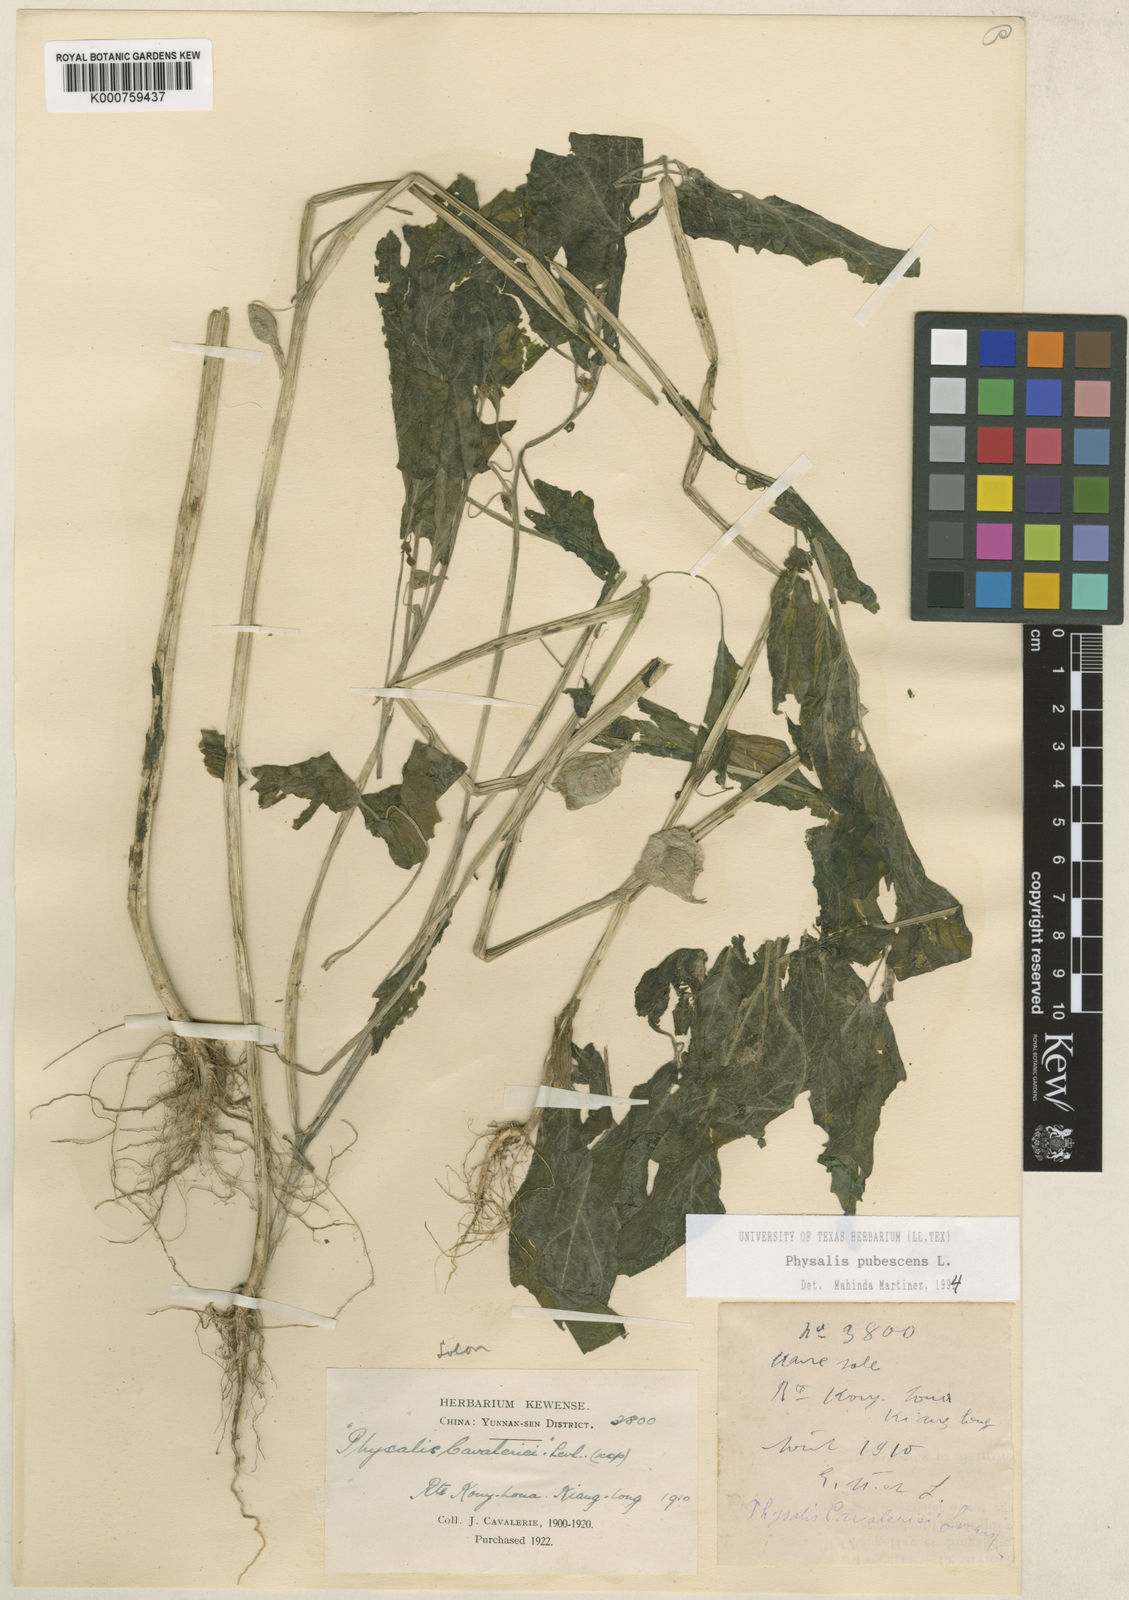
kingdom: Plantae
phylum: Tracheophyta
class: Magnoliopsida
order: Solanales
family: Solanaceae
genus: Physalis
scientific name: Physalis pubescens
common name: Downy ground-cherry
